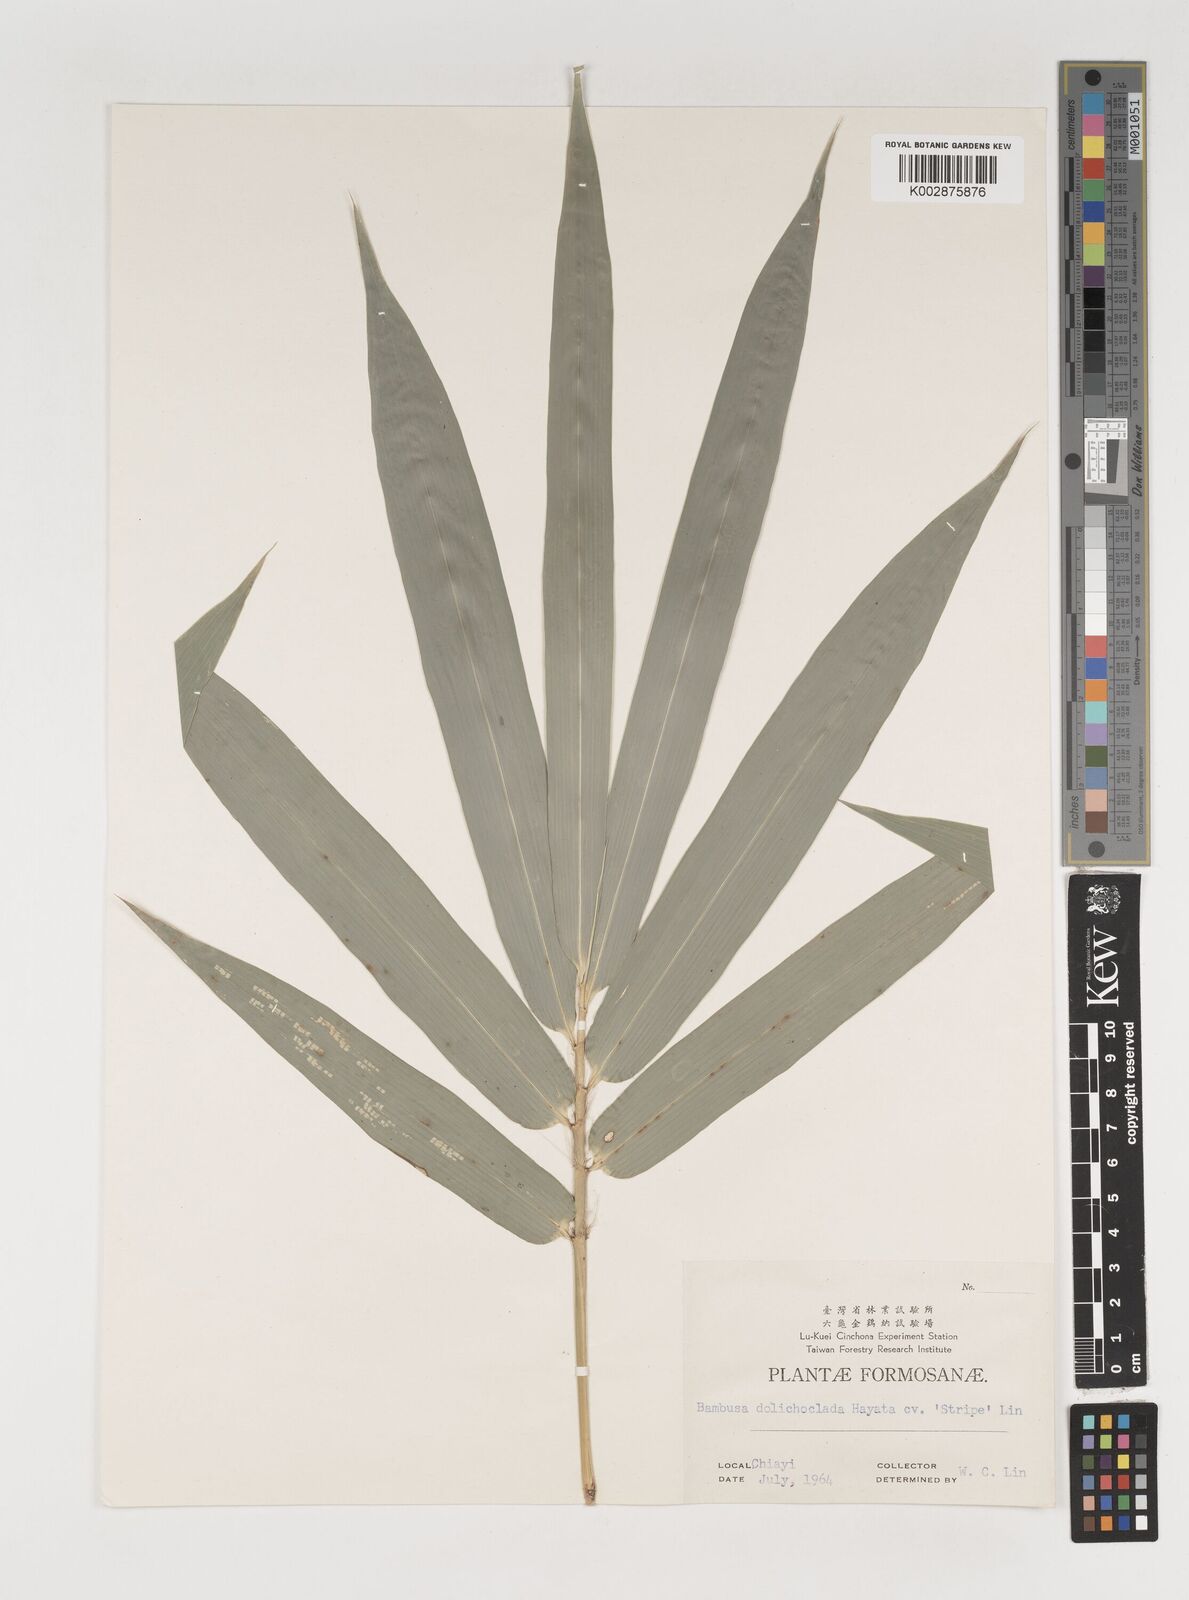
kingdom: Plantae
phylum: Tracheophyta
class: Liliopsida
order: Poales
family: Poaceae
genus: Bambusa
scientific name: Bambusa dolichoclada
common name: Long-shoot bamboo
